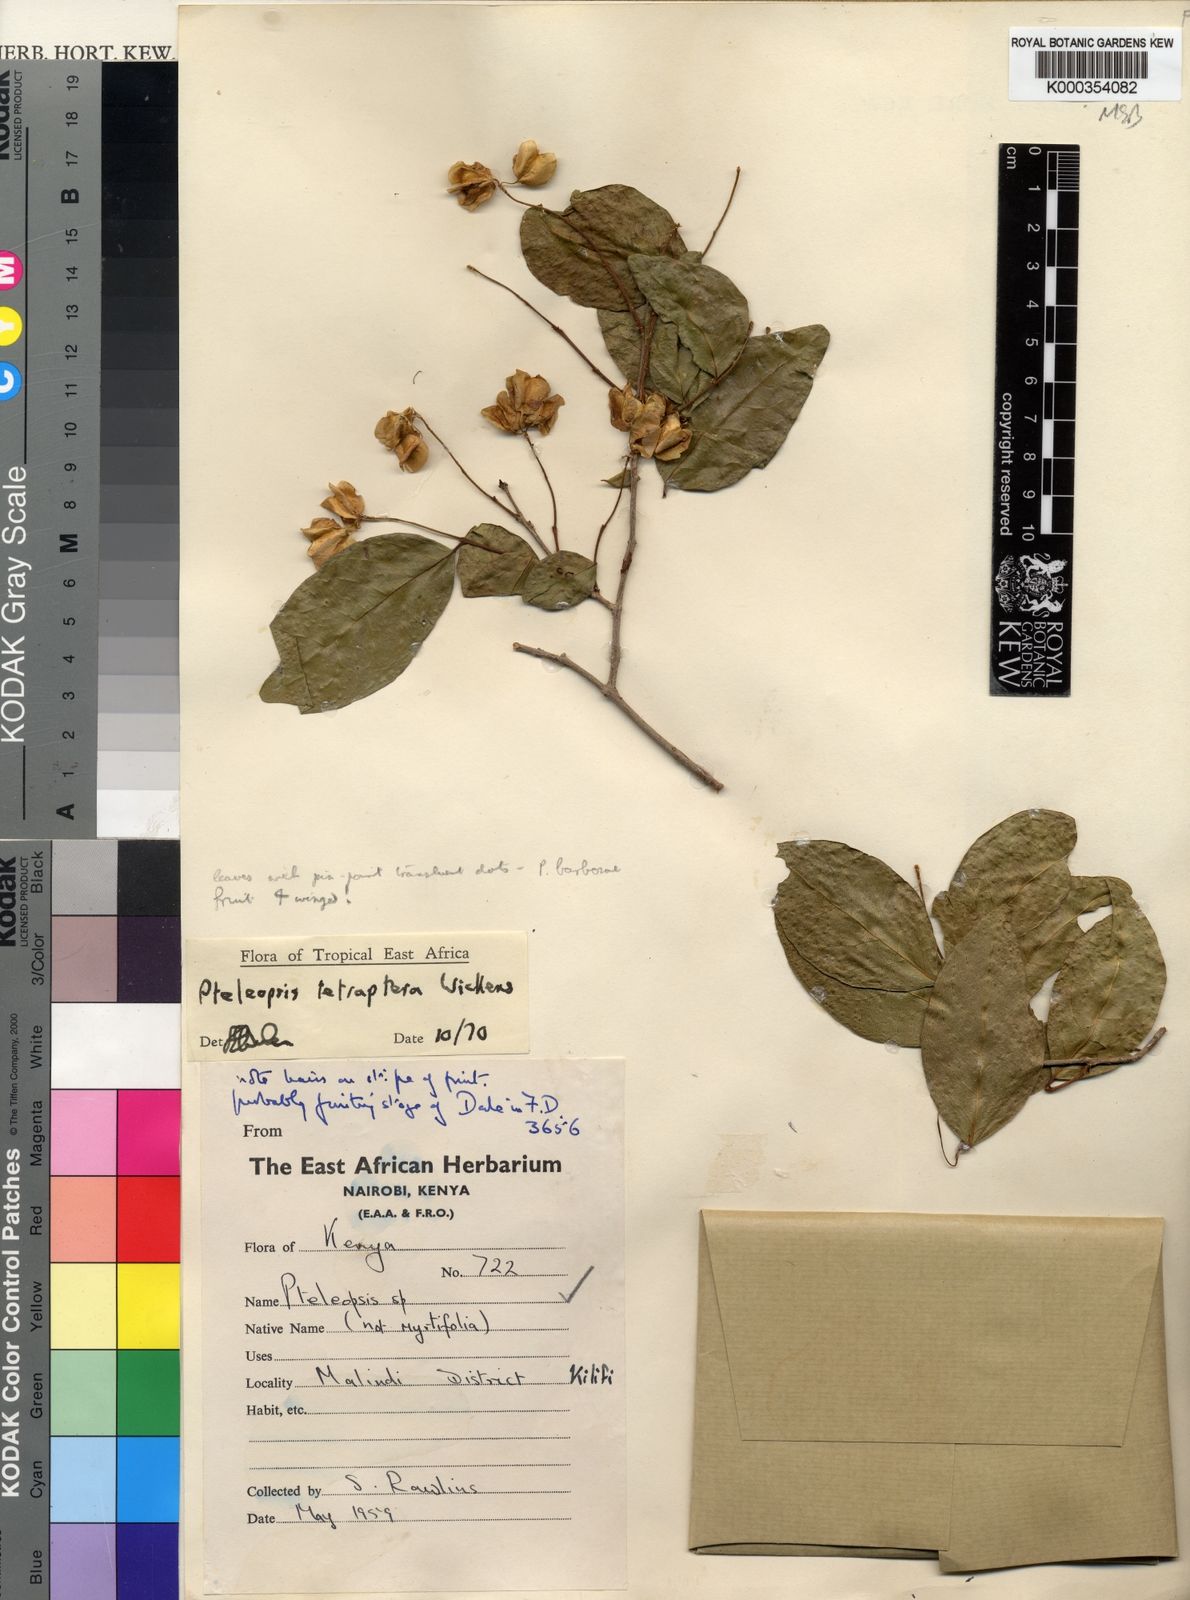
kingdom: Plantae
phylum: Tracheophyta
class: Magnoliopsida
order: Myrtales
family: Combretaceae
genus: Terminalia
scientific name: Terminalia tetraptera
